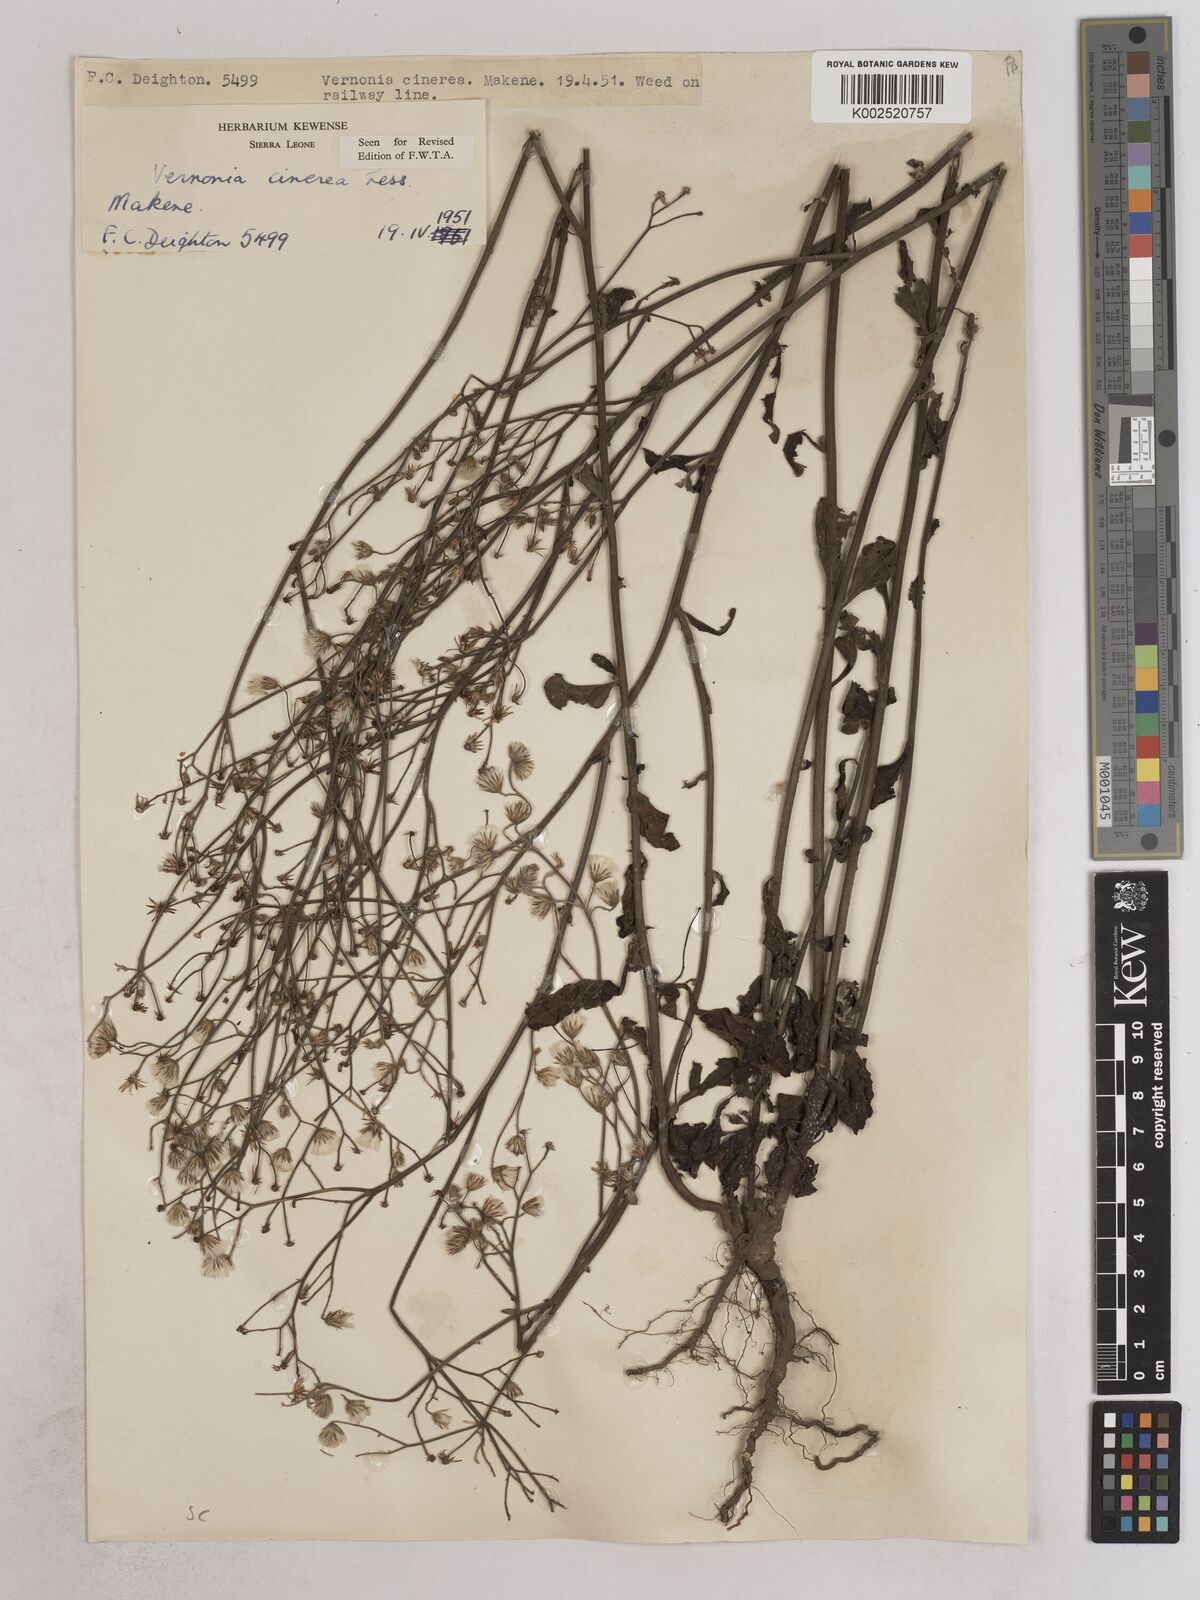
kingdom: Plantae
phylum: Tracheophyta
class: Magnoliopsida
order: Asterales
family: Asteraceae
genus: Cyanthillium
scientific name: Cyanthillium cinereum
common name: Little ironweed
